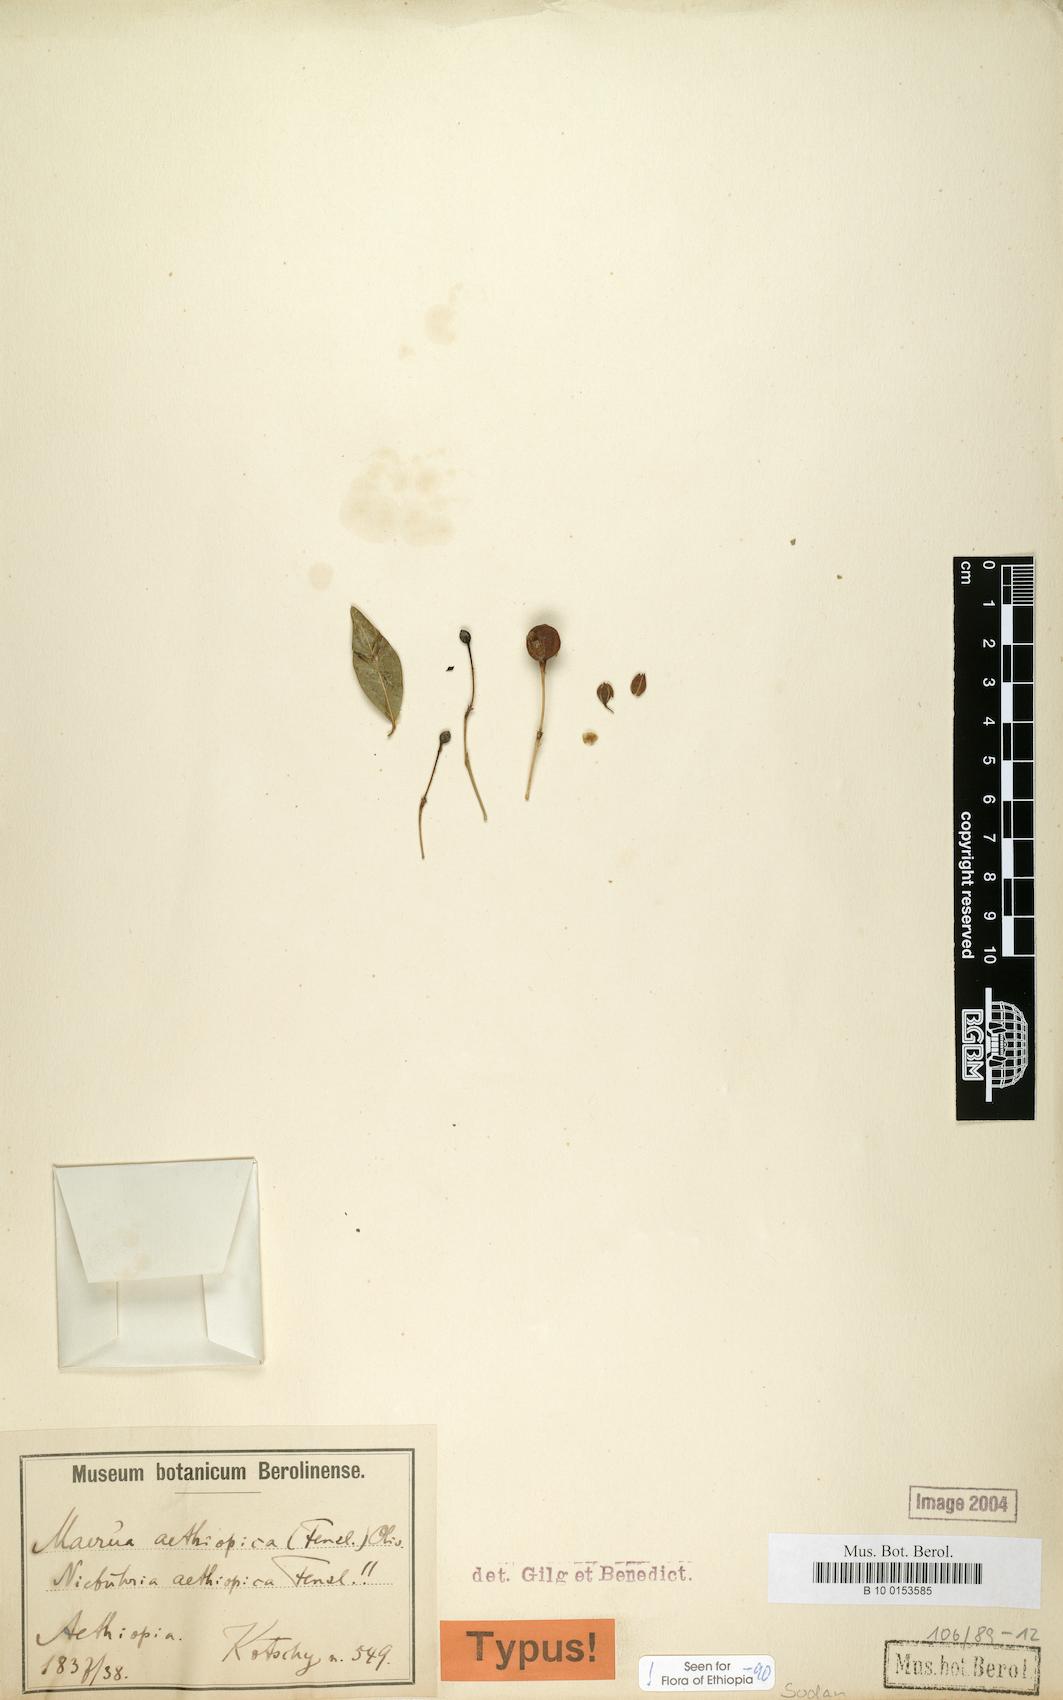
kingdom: Plantae
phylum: Tracheophyta
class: Magnoliopsida
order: Brassicales
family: Capparaceae
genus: Maerua
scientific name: Maerua aethiopica
